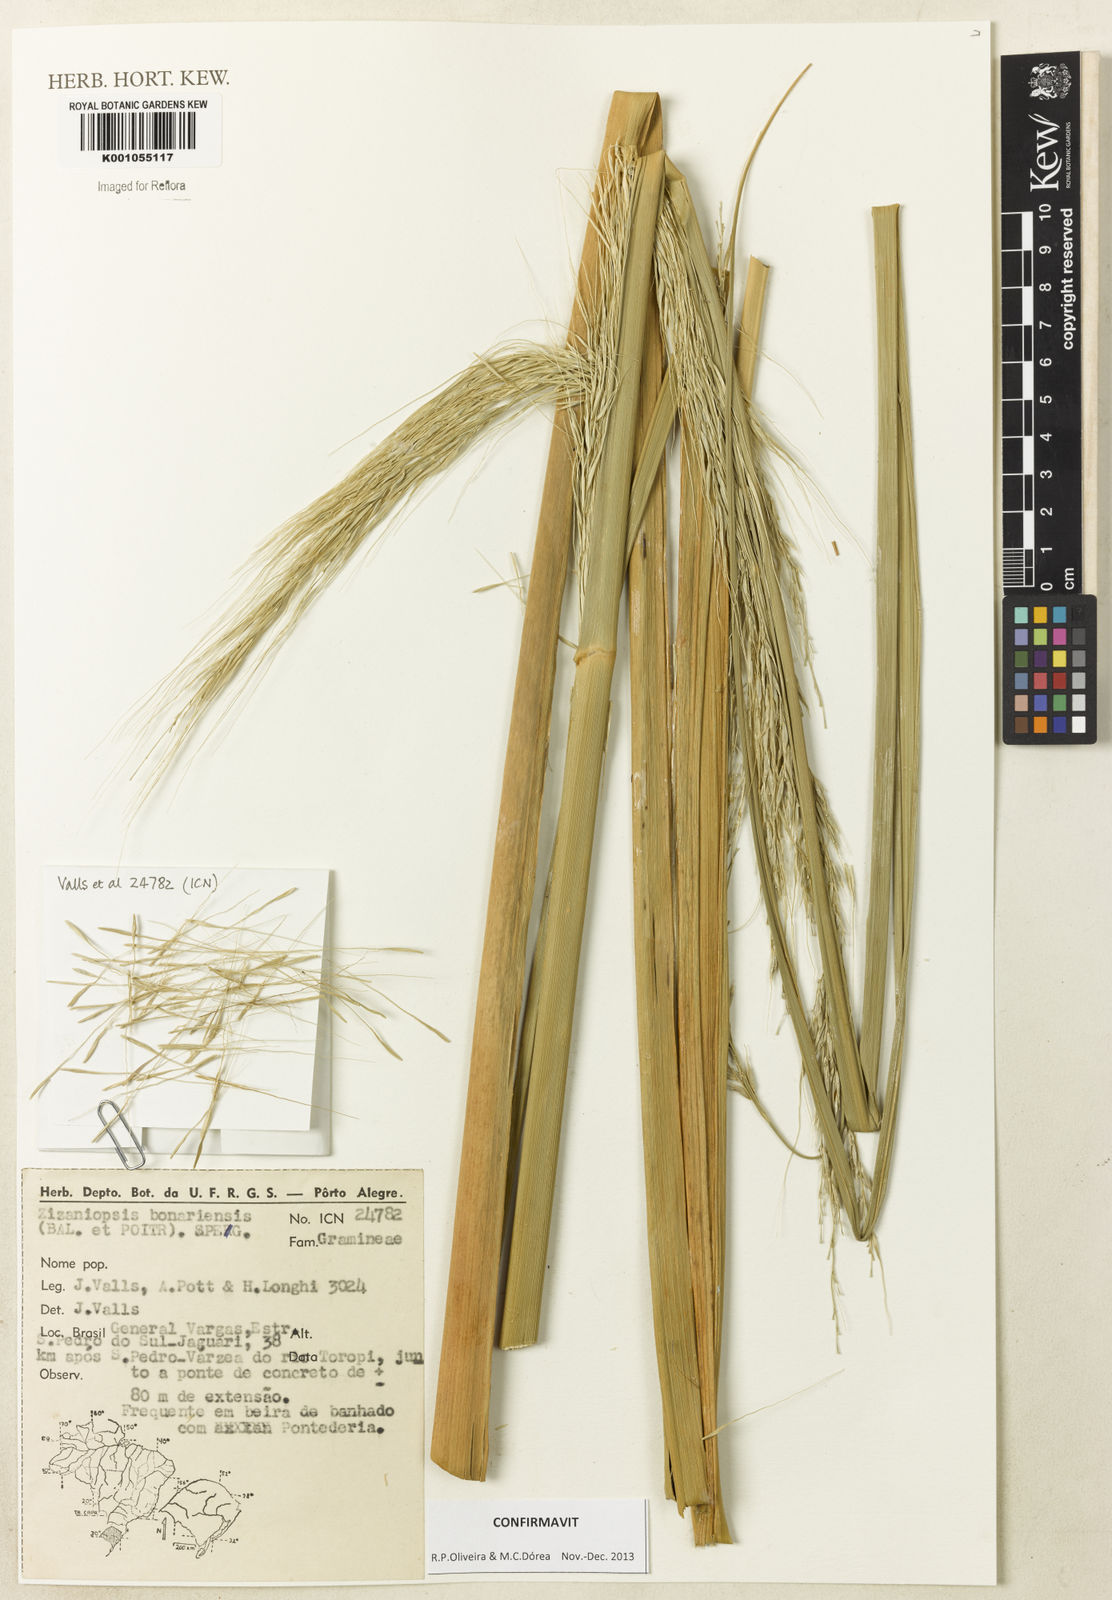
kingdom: Plantae
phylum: Tracheophyta
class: Liliopsida
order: Poales
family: Poaceae
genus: Zizaniopsis
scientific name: Zizaniopsis bonariensis
